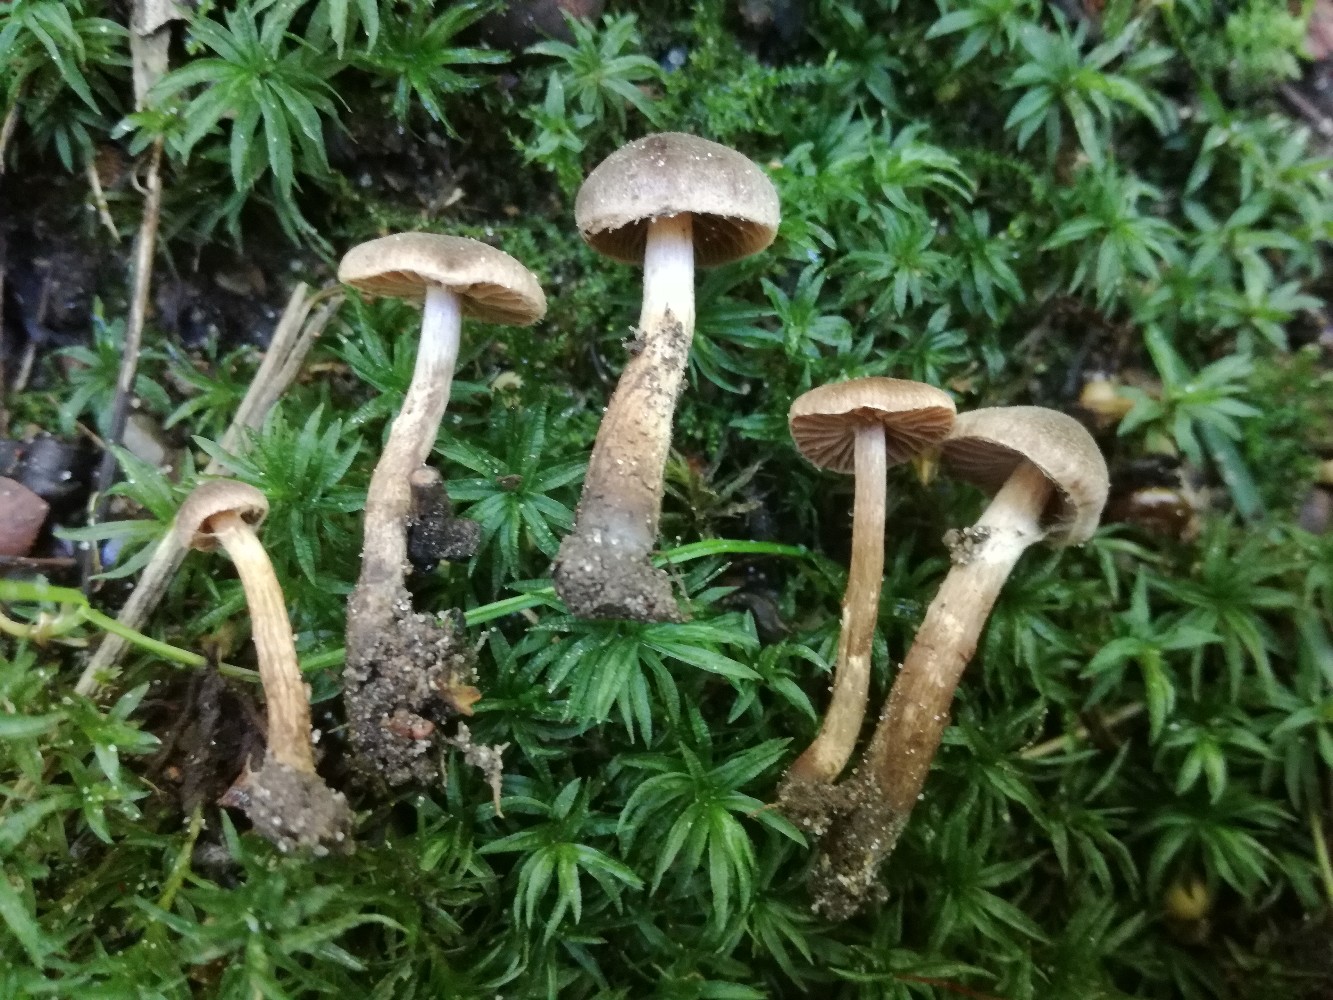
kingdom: Fungi
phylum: Basidiomycota
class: Agaricomycetes
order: Agaricales
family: Cortinariaceae
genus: Cortinarius
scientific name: Cortinarius desertorum
